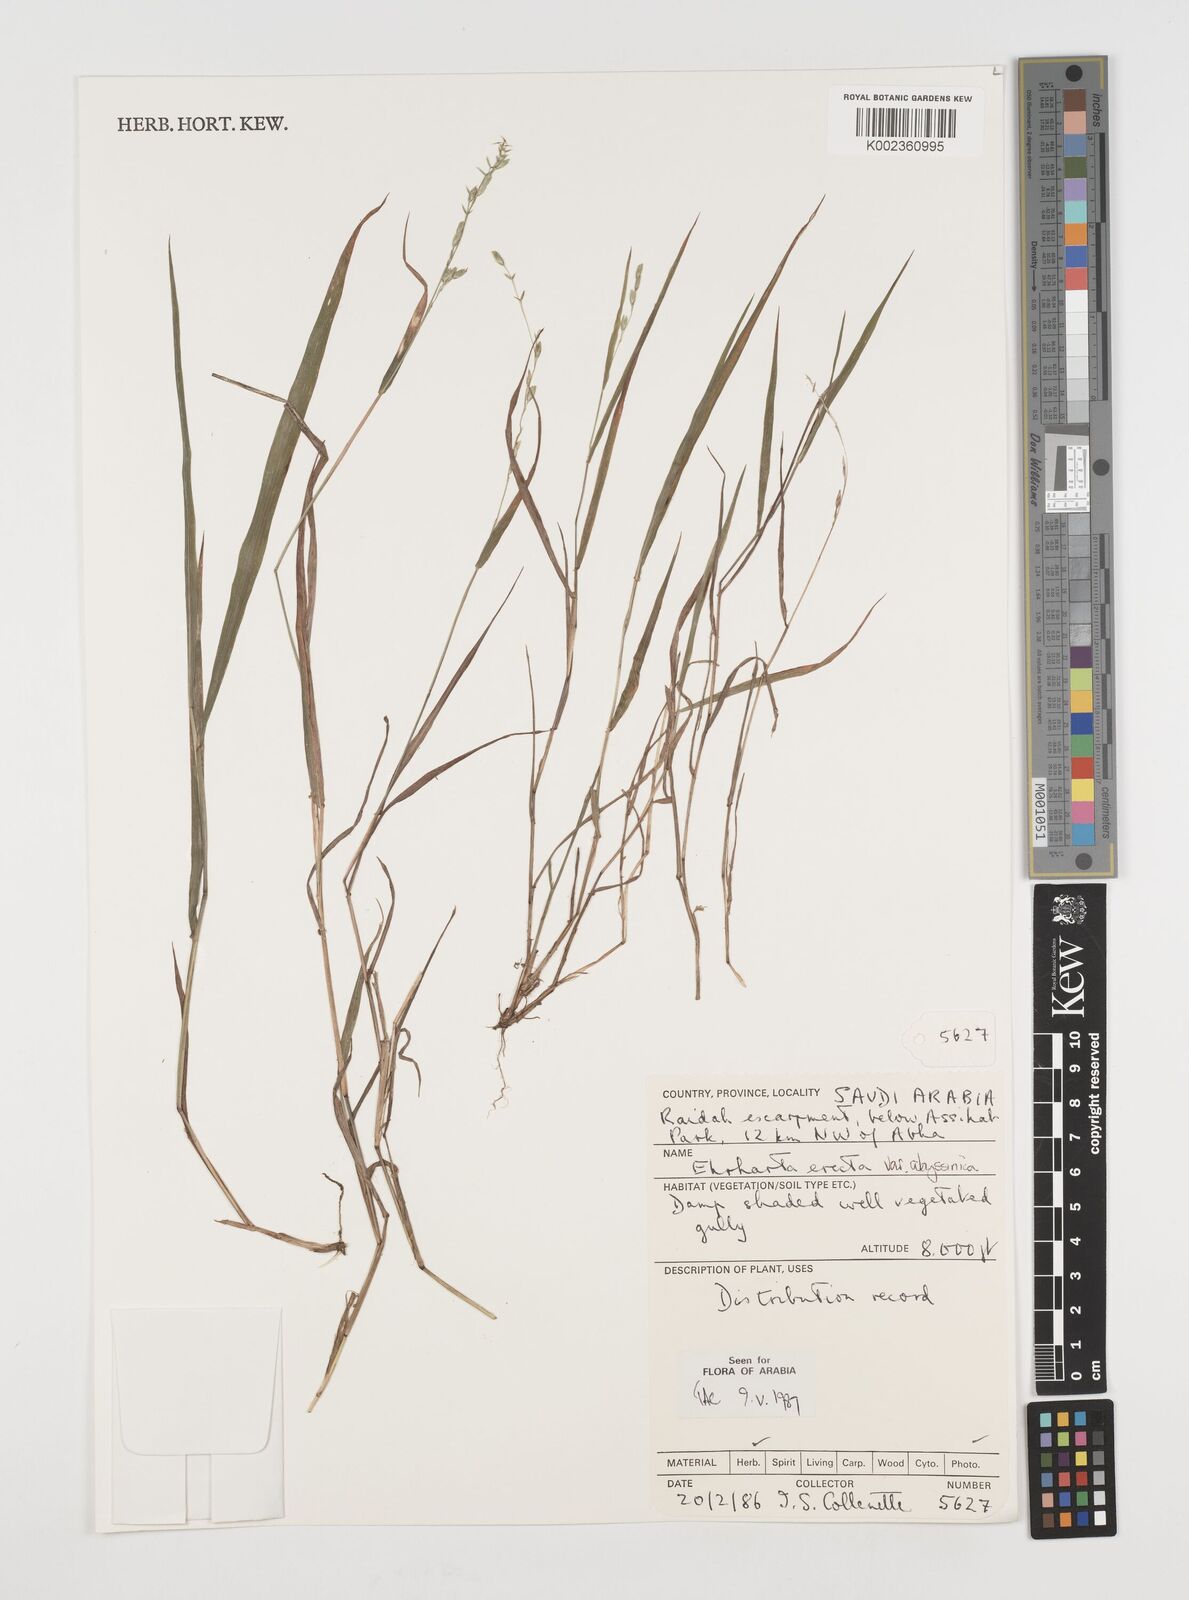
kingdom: Plantae
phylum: Tracheophyta
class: Liliopsida
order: Poales
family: Poaceae
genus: Ehrharta
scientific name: Ehrharta erecta
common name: Panic veldtgrass
